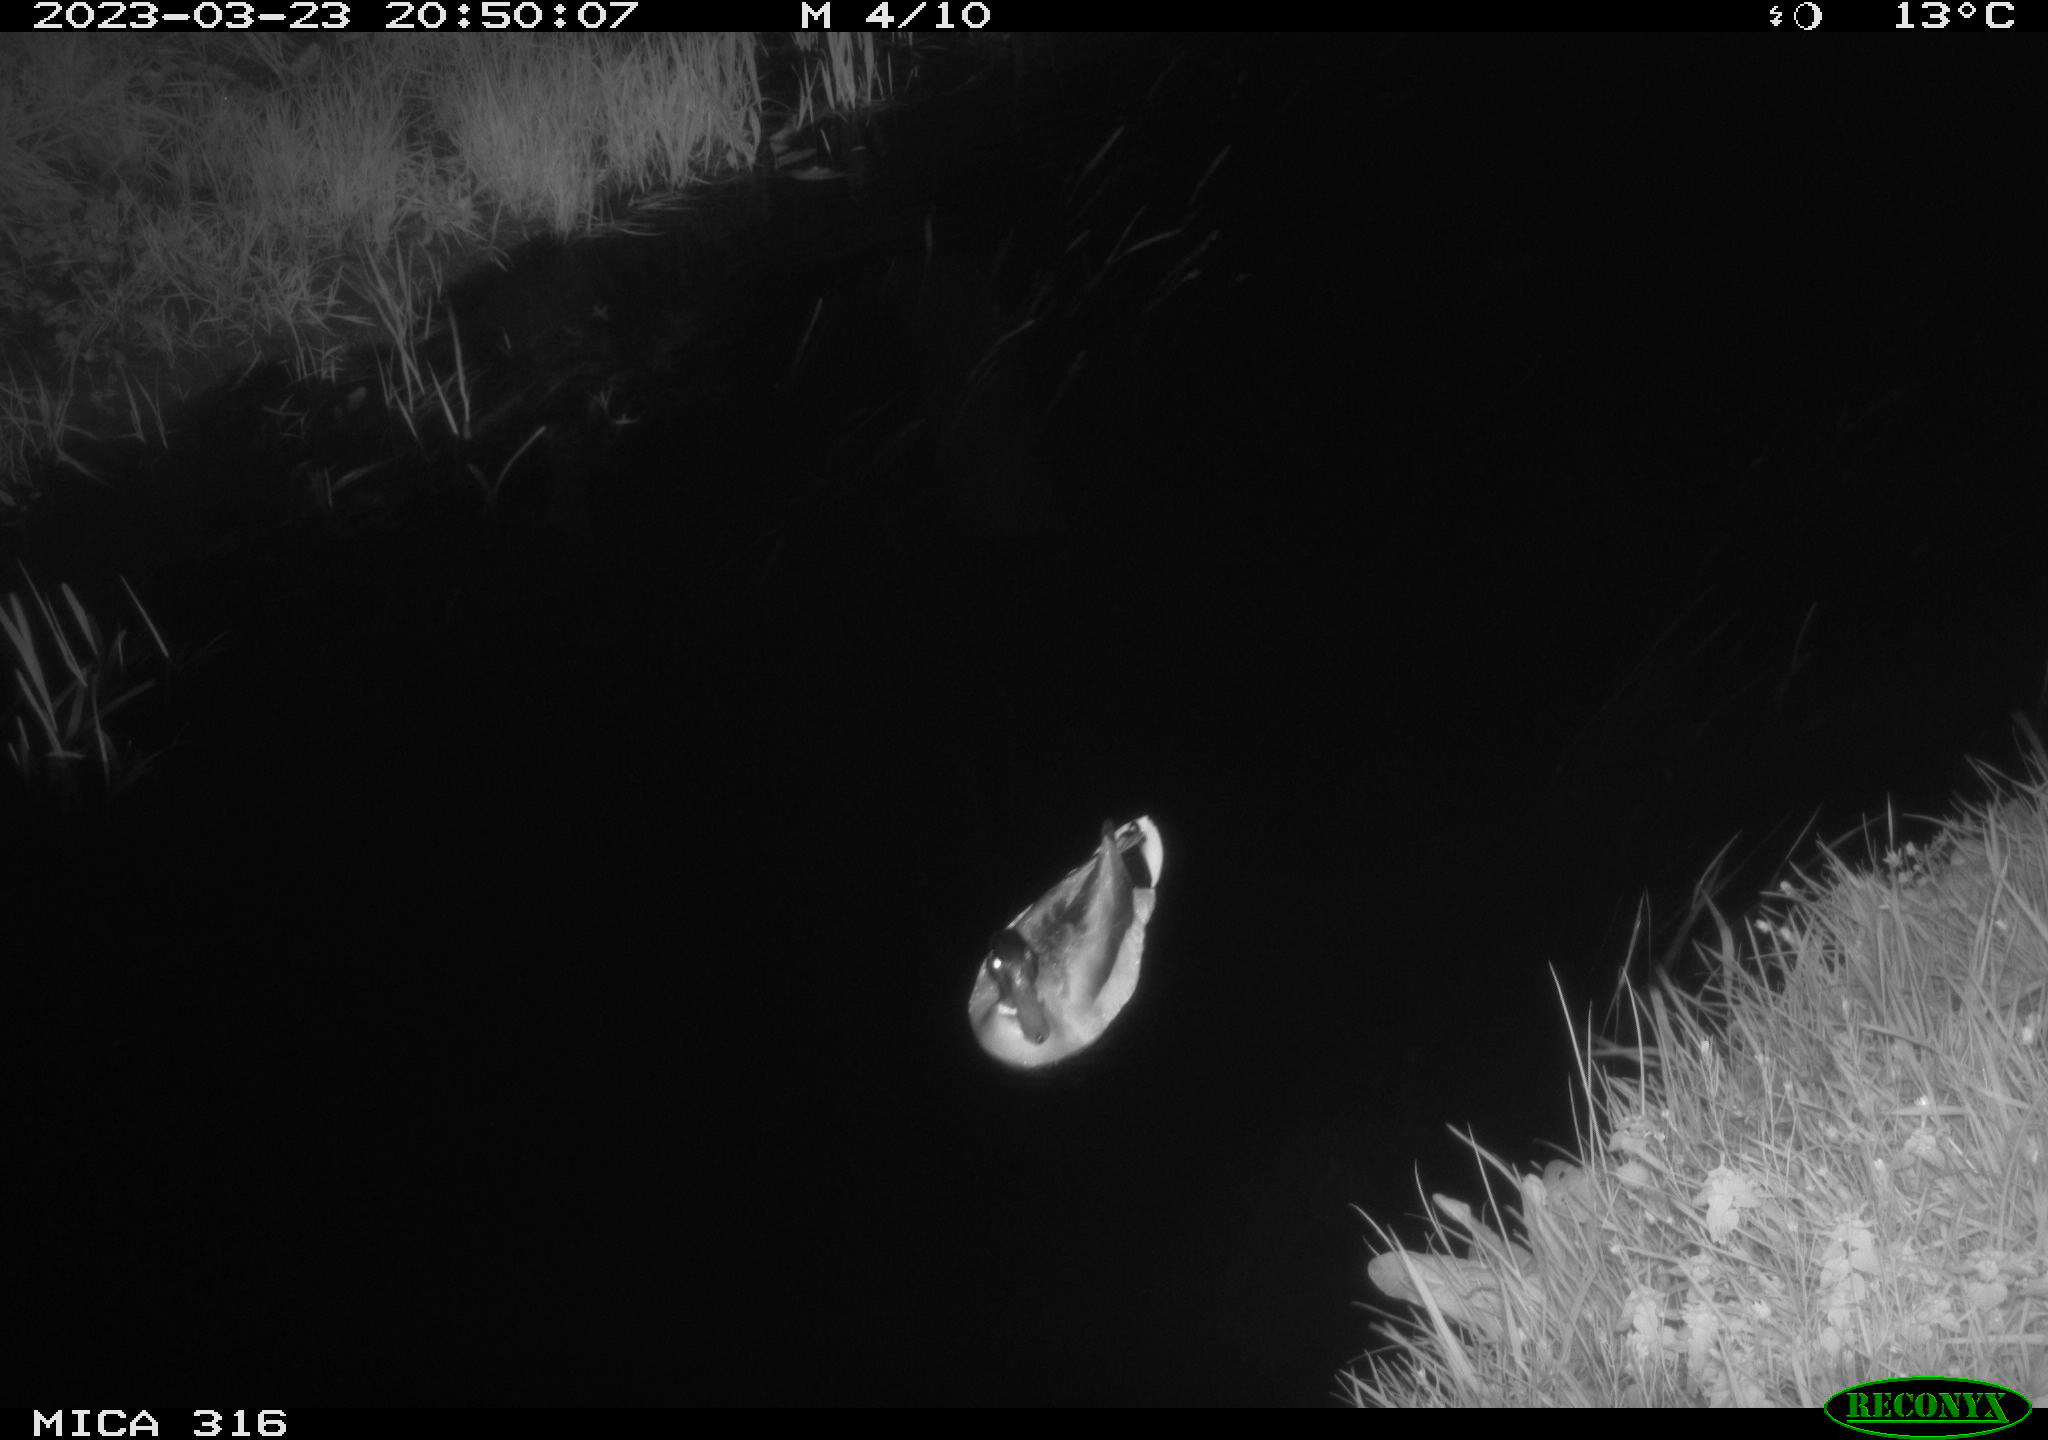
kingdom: Animalia
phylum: Chordata
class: Aves
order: Anseriformes
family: Anatidae
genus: Anas
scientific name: Anas
